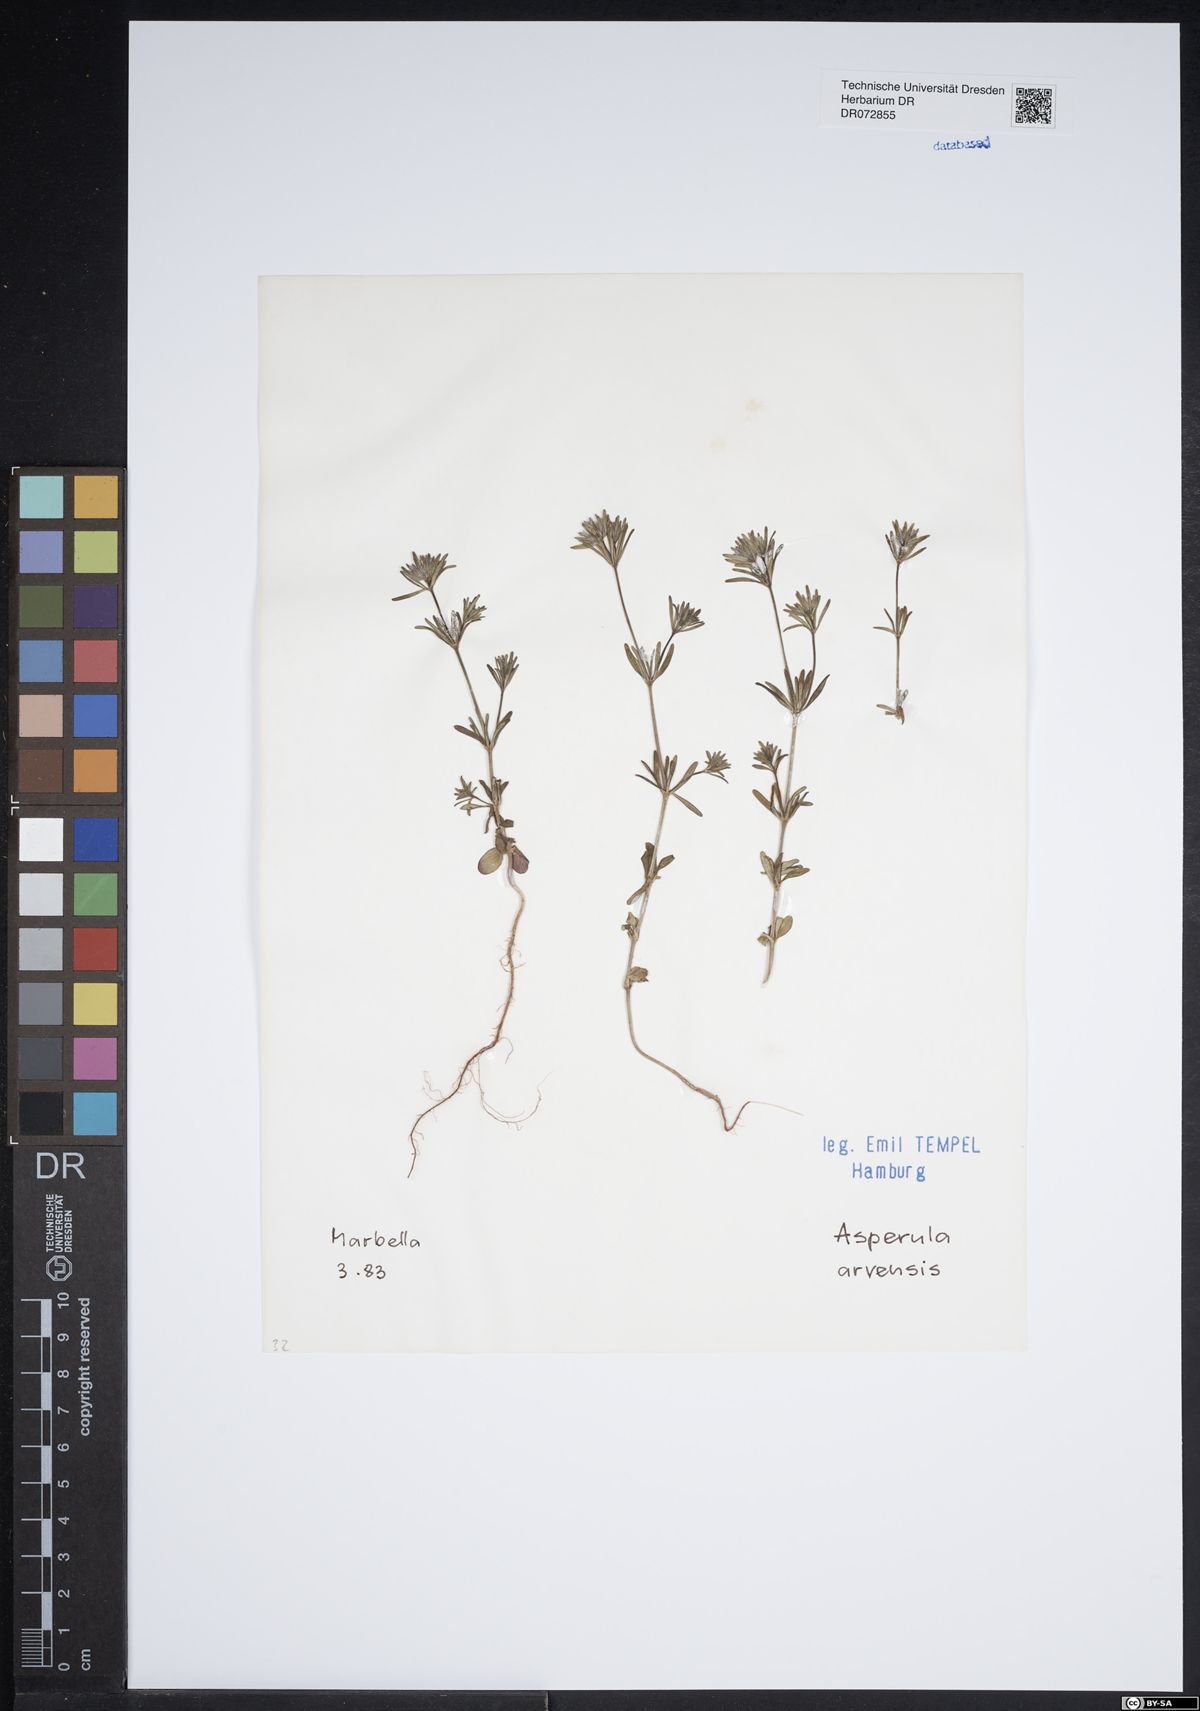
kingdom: Plantae
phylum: Tracheophyta
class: Magnoliopsida
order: Gentianales
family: Rubiaceae
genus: Asperula
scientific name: Asperula arvensis
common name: Blue woodruff
